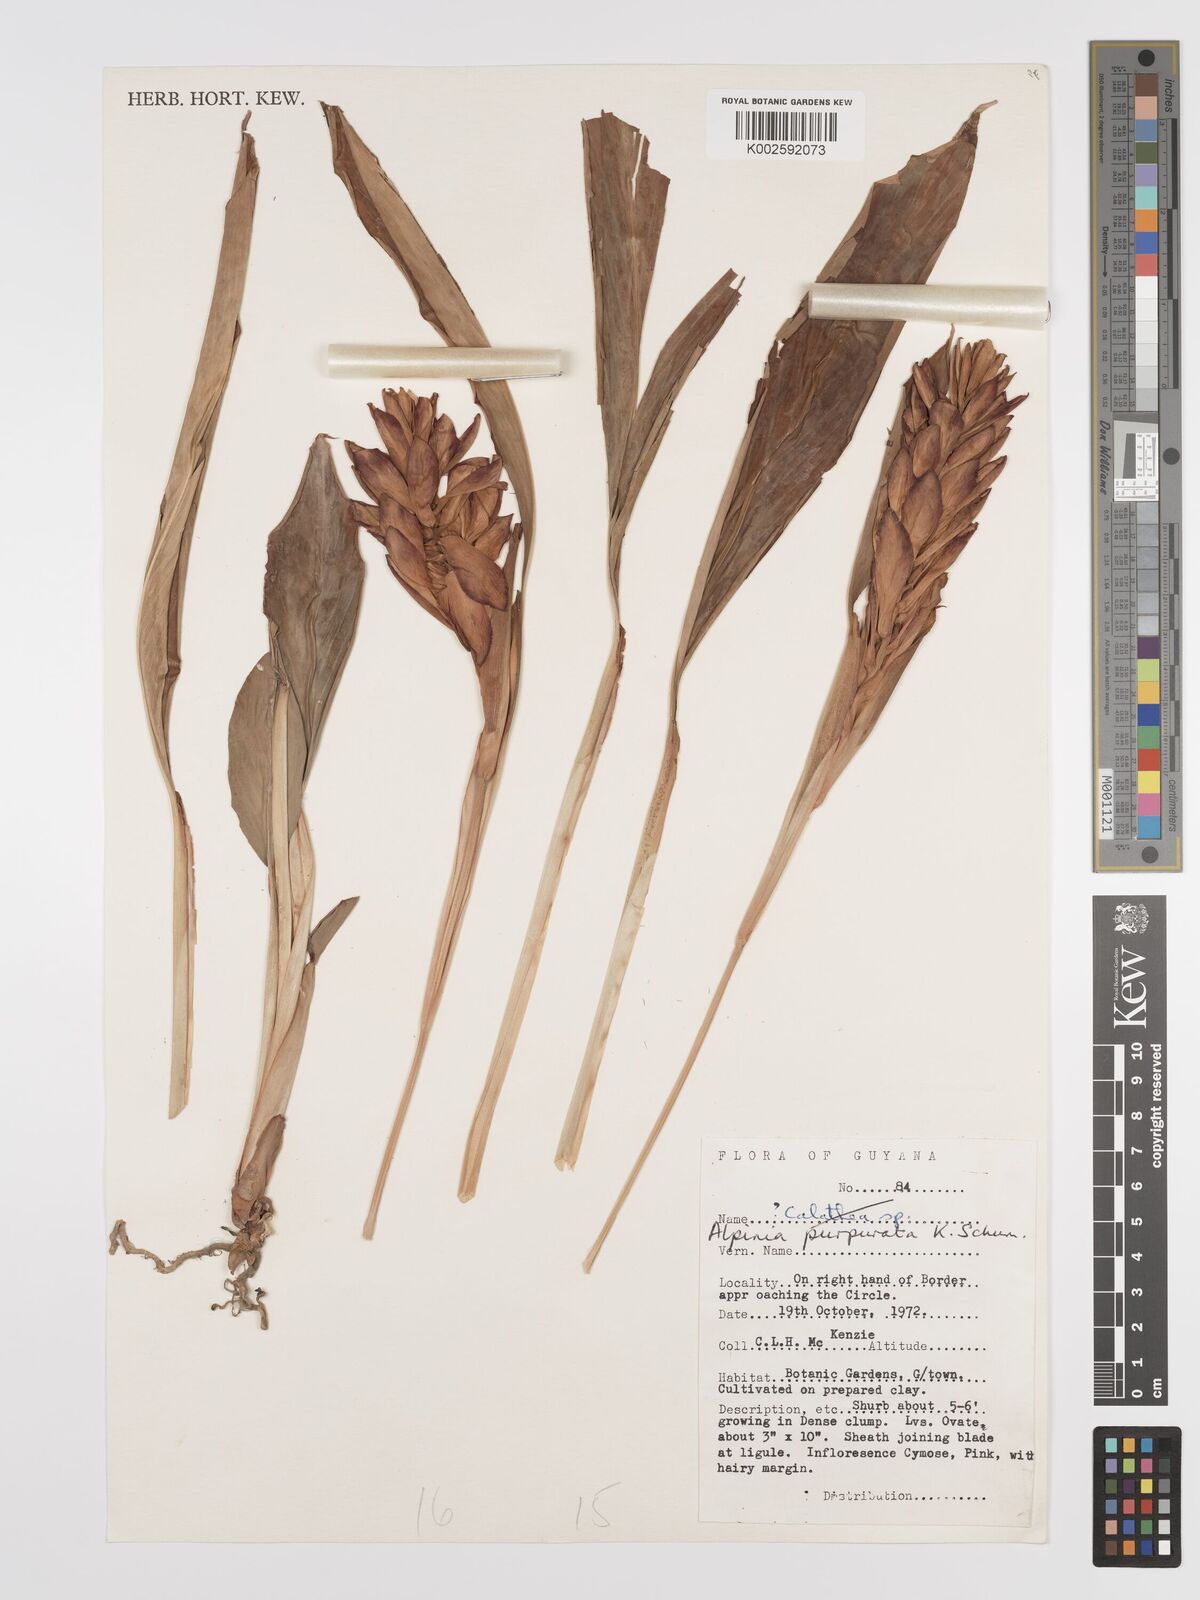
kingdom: Plantae
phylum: Tracheophyta
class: Liliopsida
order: Zingiberales
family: Zingiberaceae
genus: Alpinia
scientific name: Alpinia purpurata
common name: Red ginger
